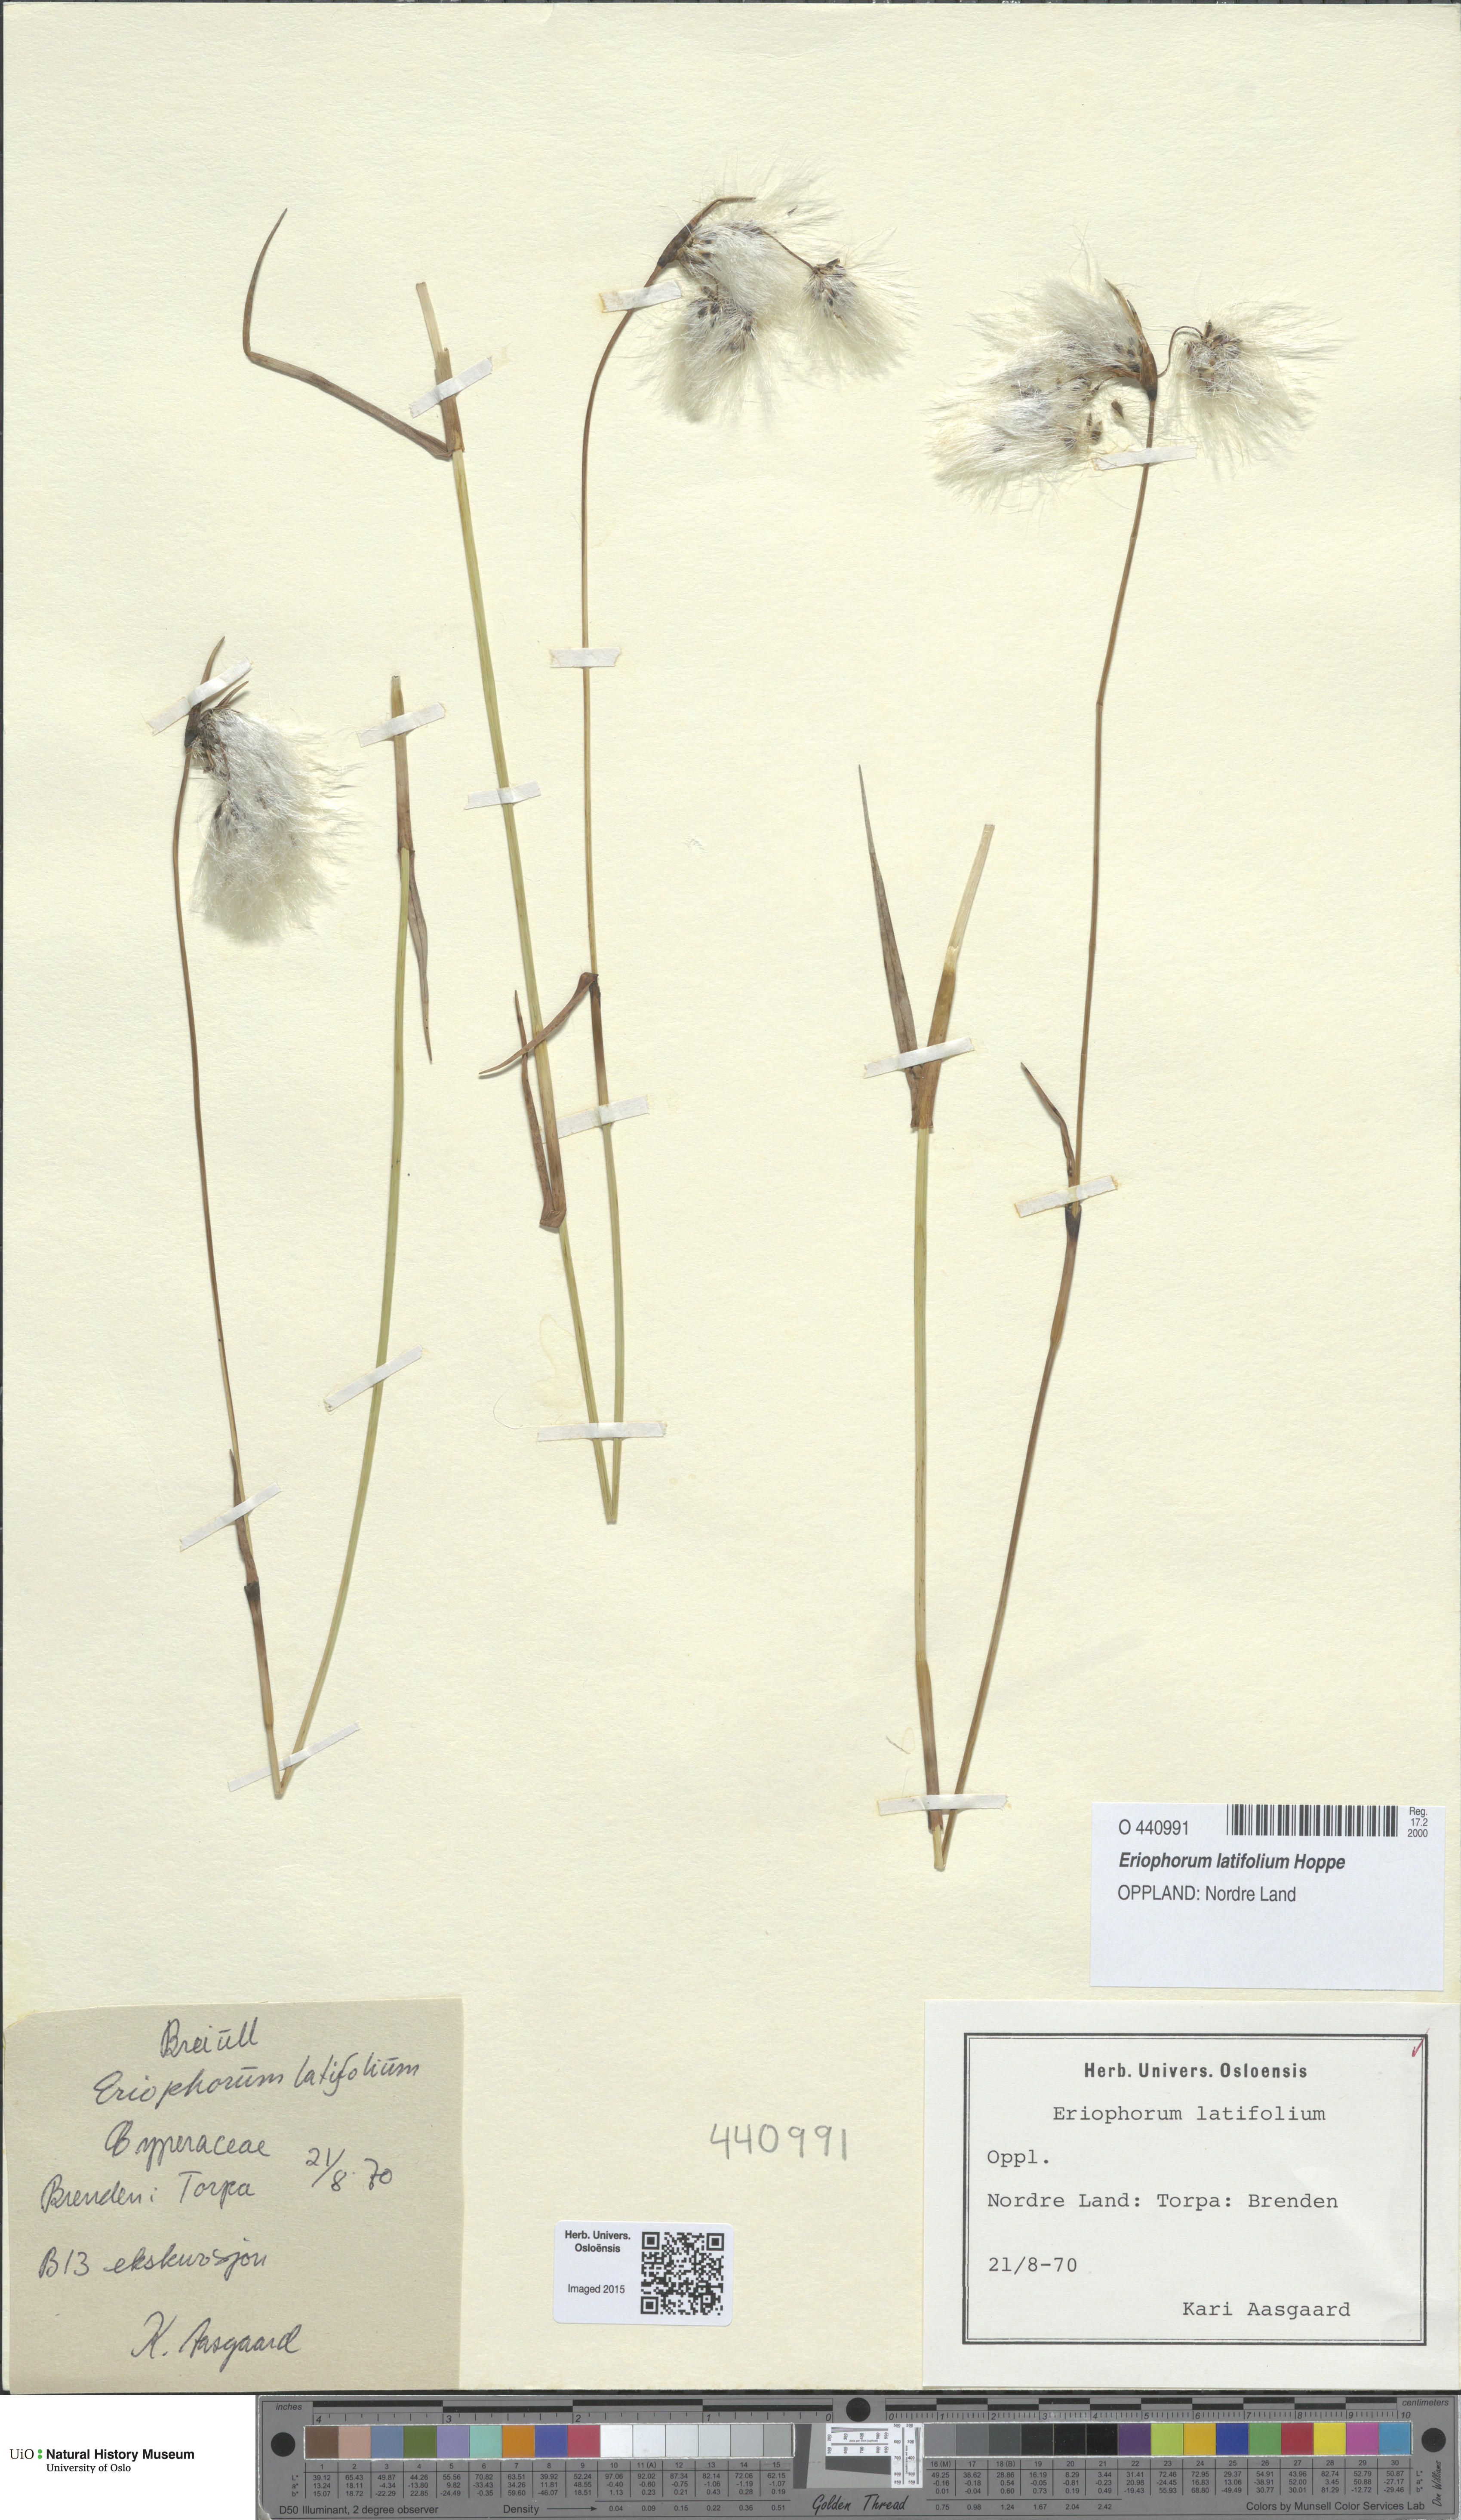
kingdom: Plantae
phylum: Tracheophyta
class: Liliopsida
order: Poales
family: Cyperaceae
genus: Eriophorum
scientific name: Eriophorum latifolium
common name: Broad-leaved cottongrass
